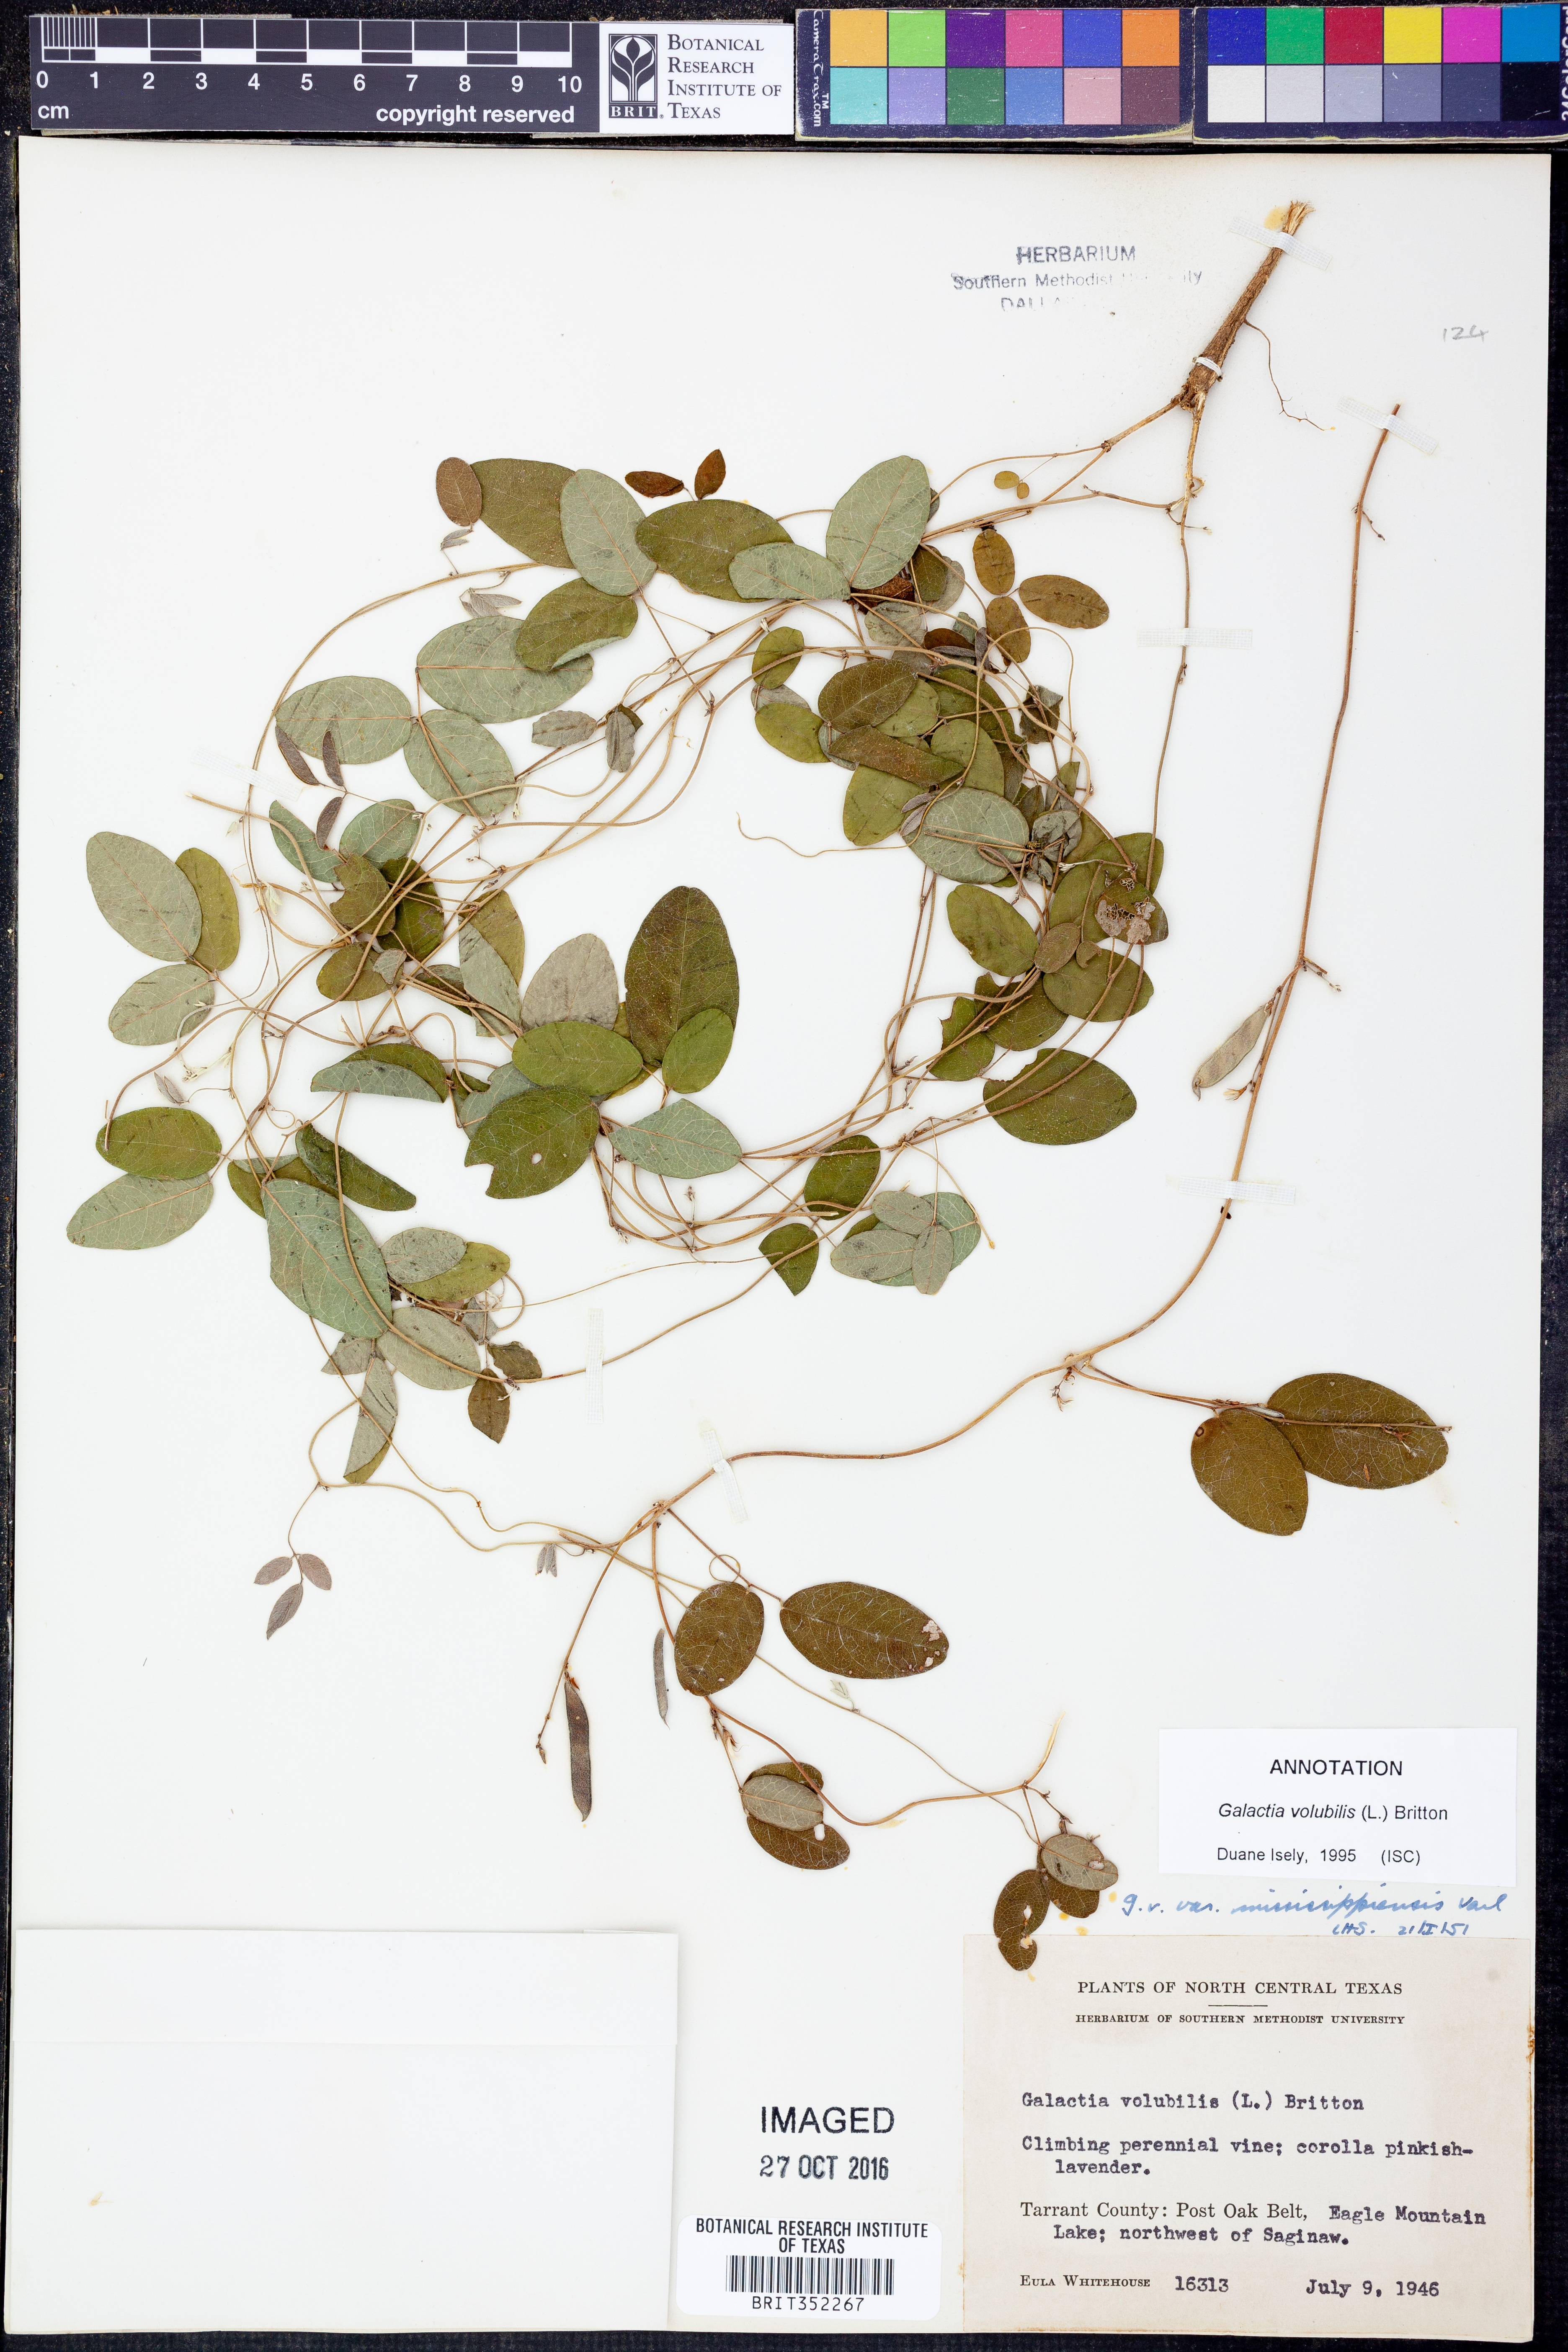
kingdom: Plantae
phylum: Tracheophyta
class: Magnoliopsida
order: Fabales
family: Fabaceae
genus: Galactia
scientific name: Galactia volubilis
